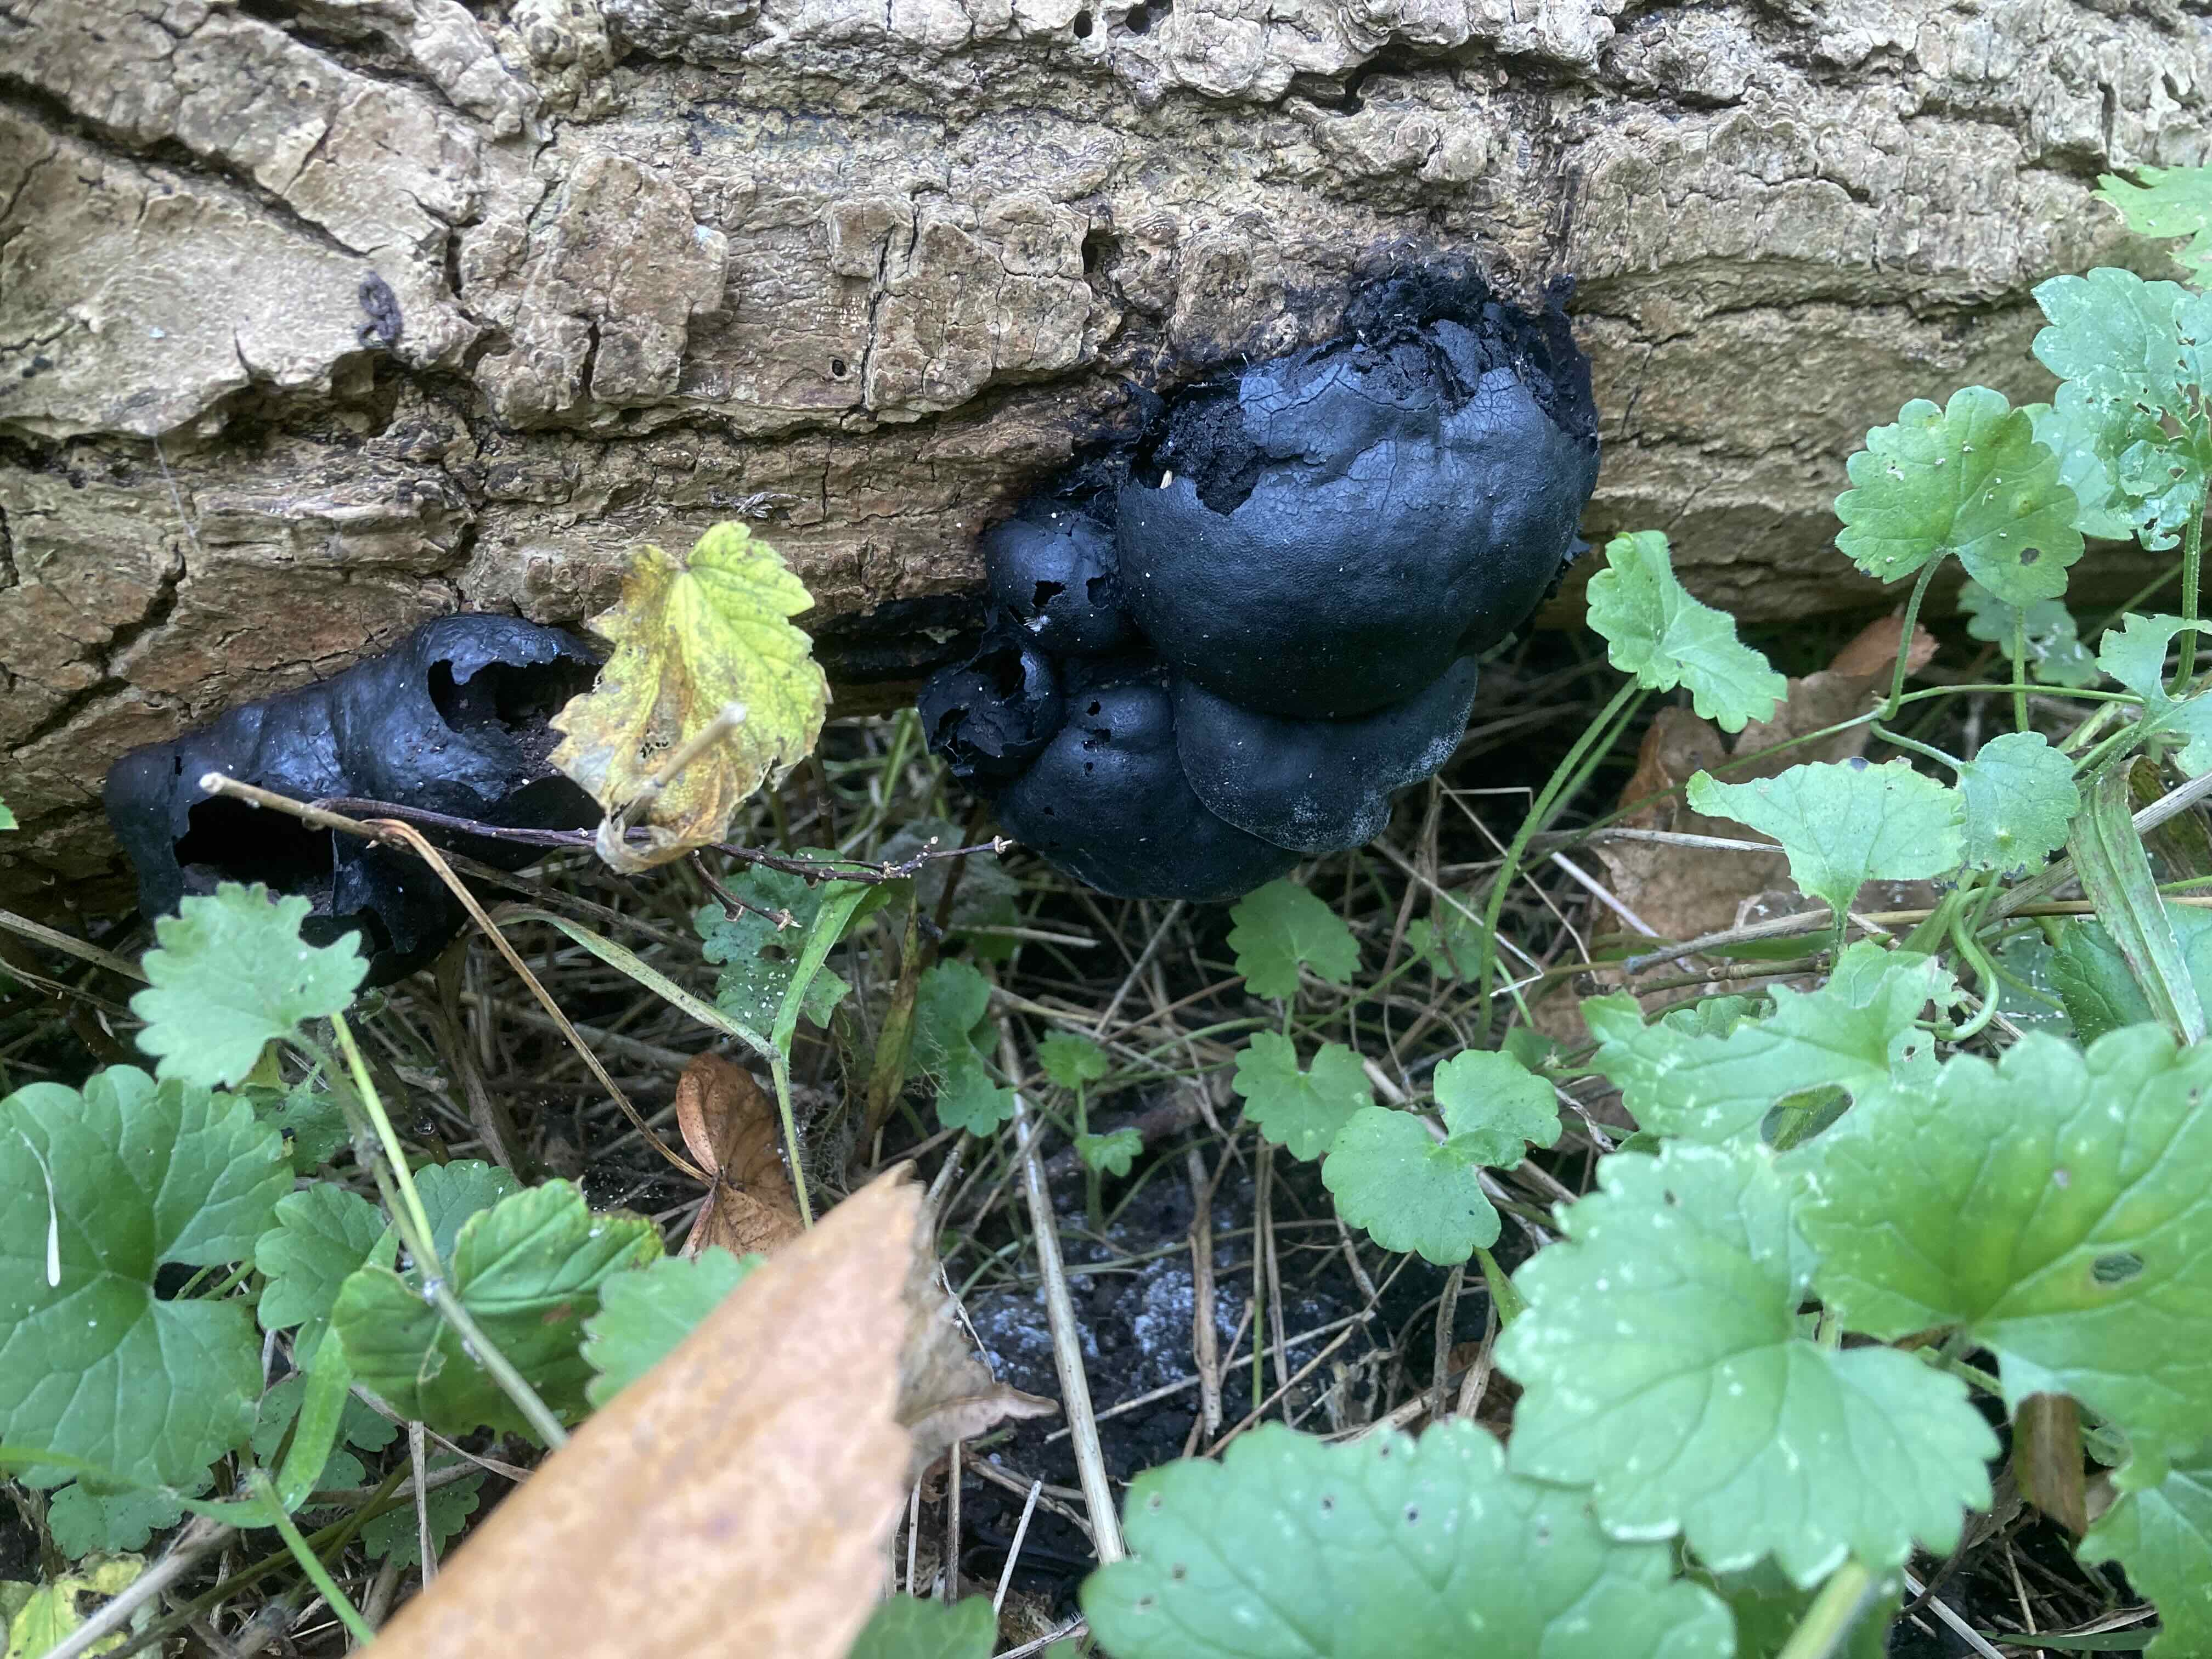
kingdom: Fungi
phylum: Ascomycota
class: Sordariomycetes
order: Xylariales
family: Hypoxylaceae
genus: Daldinia
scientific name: Daldinia concentrica
